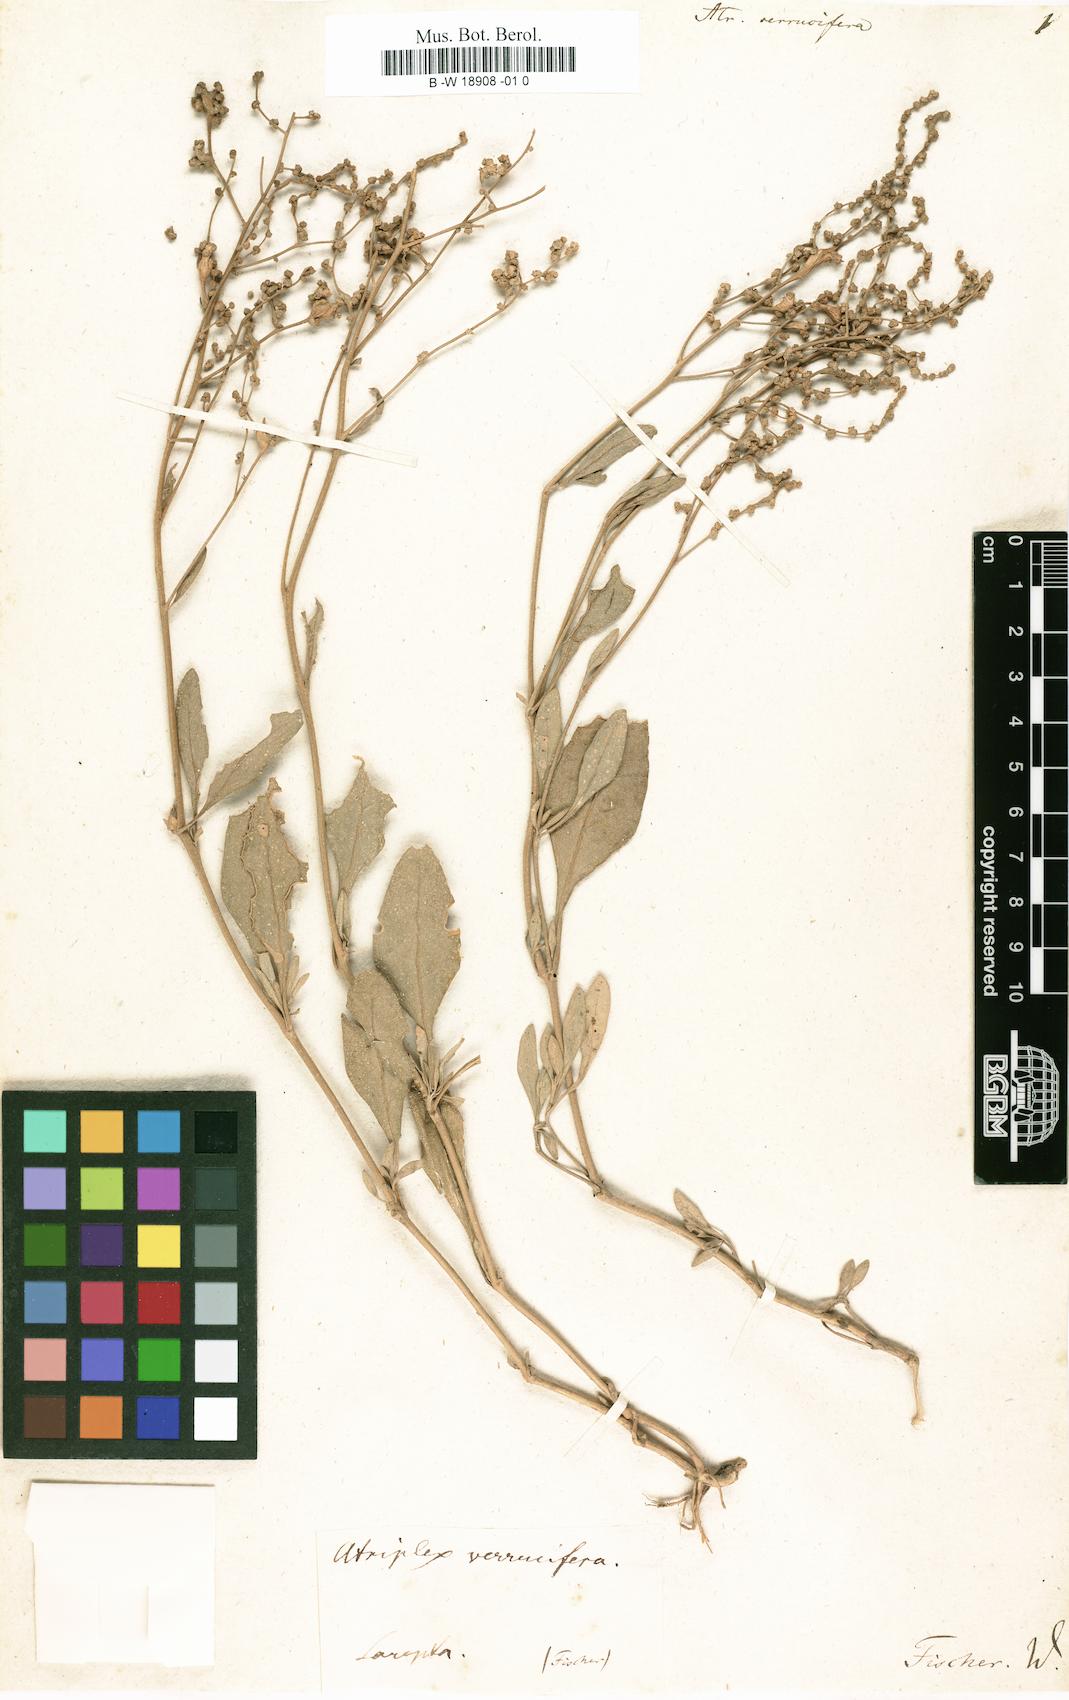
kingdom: Plantae
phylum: Tracheophyta
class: Magnoliopsida
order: Caryophyllales
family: Amaranthaceae
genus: Halimione
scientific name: Halimione verrucifera
